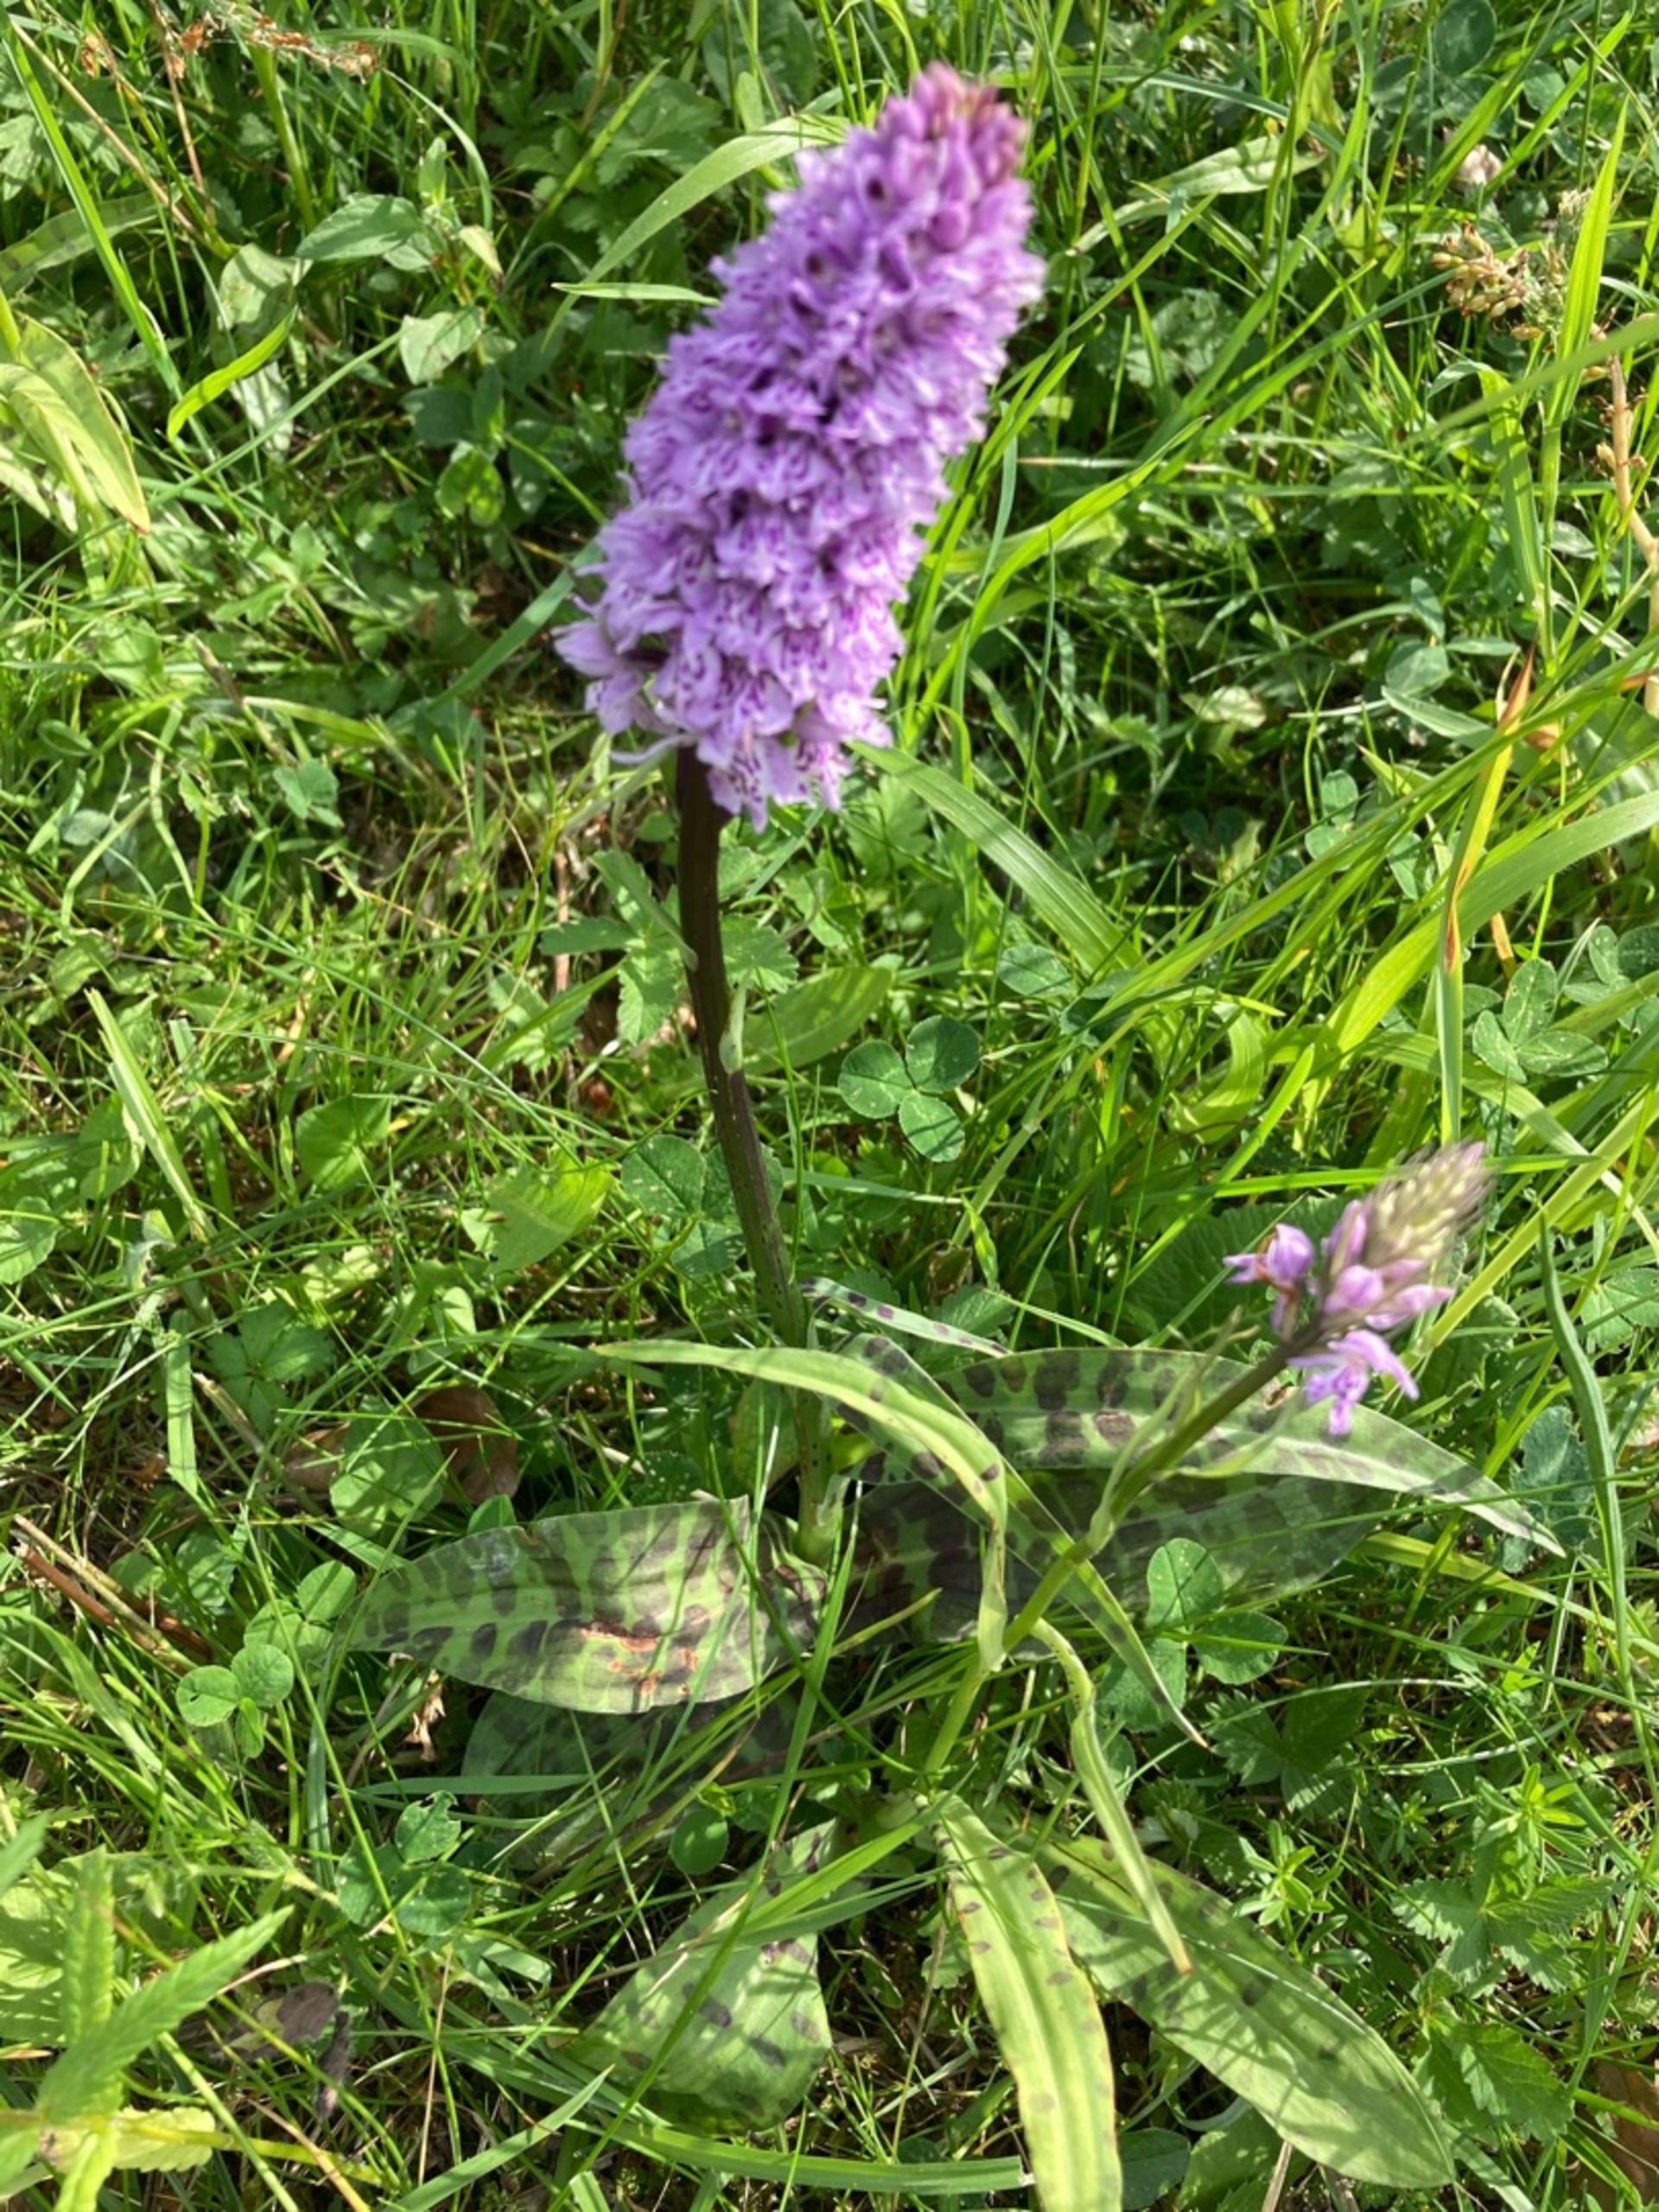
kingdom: Plantae
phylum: Tracheophyta
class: Liliopsida
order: Asparagales
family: Orchidaceae
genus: Dactylorhiza
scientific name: Dactylorhiza maculata
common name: Skov-gøgeurt
